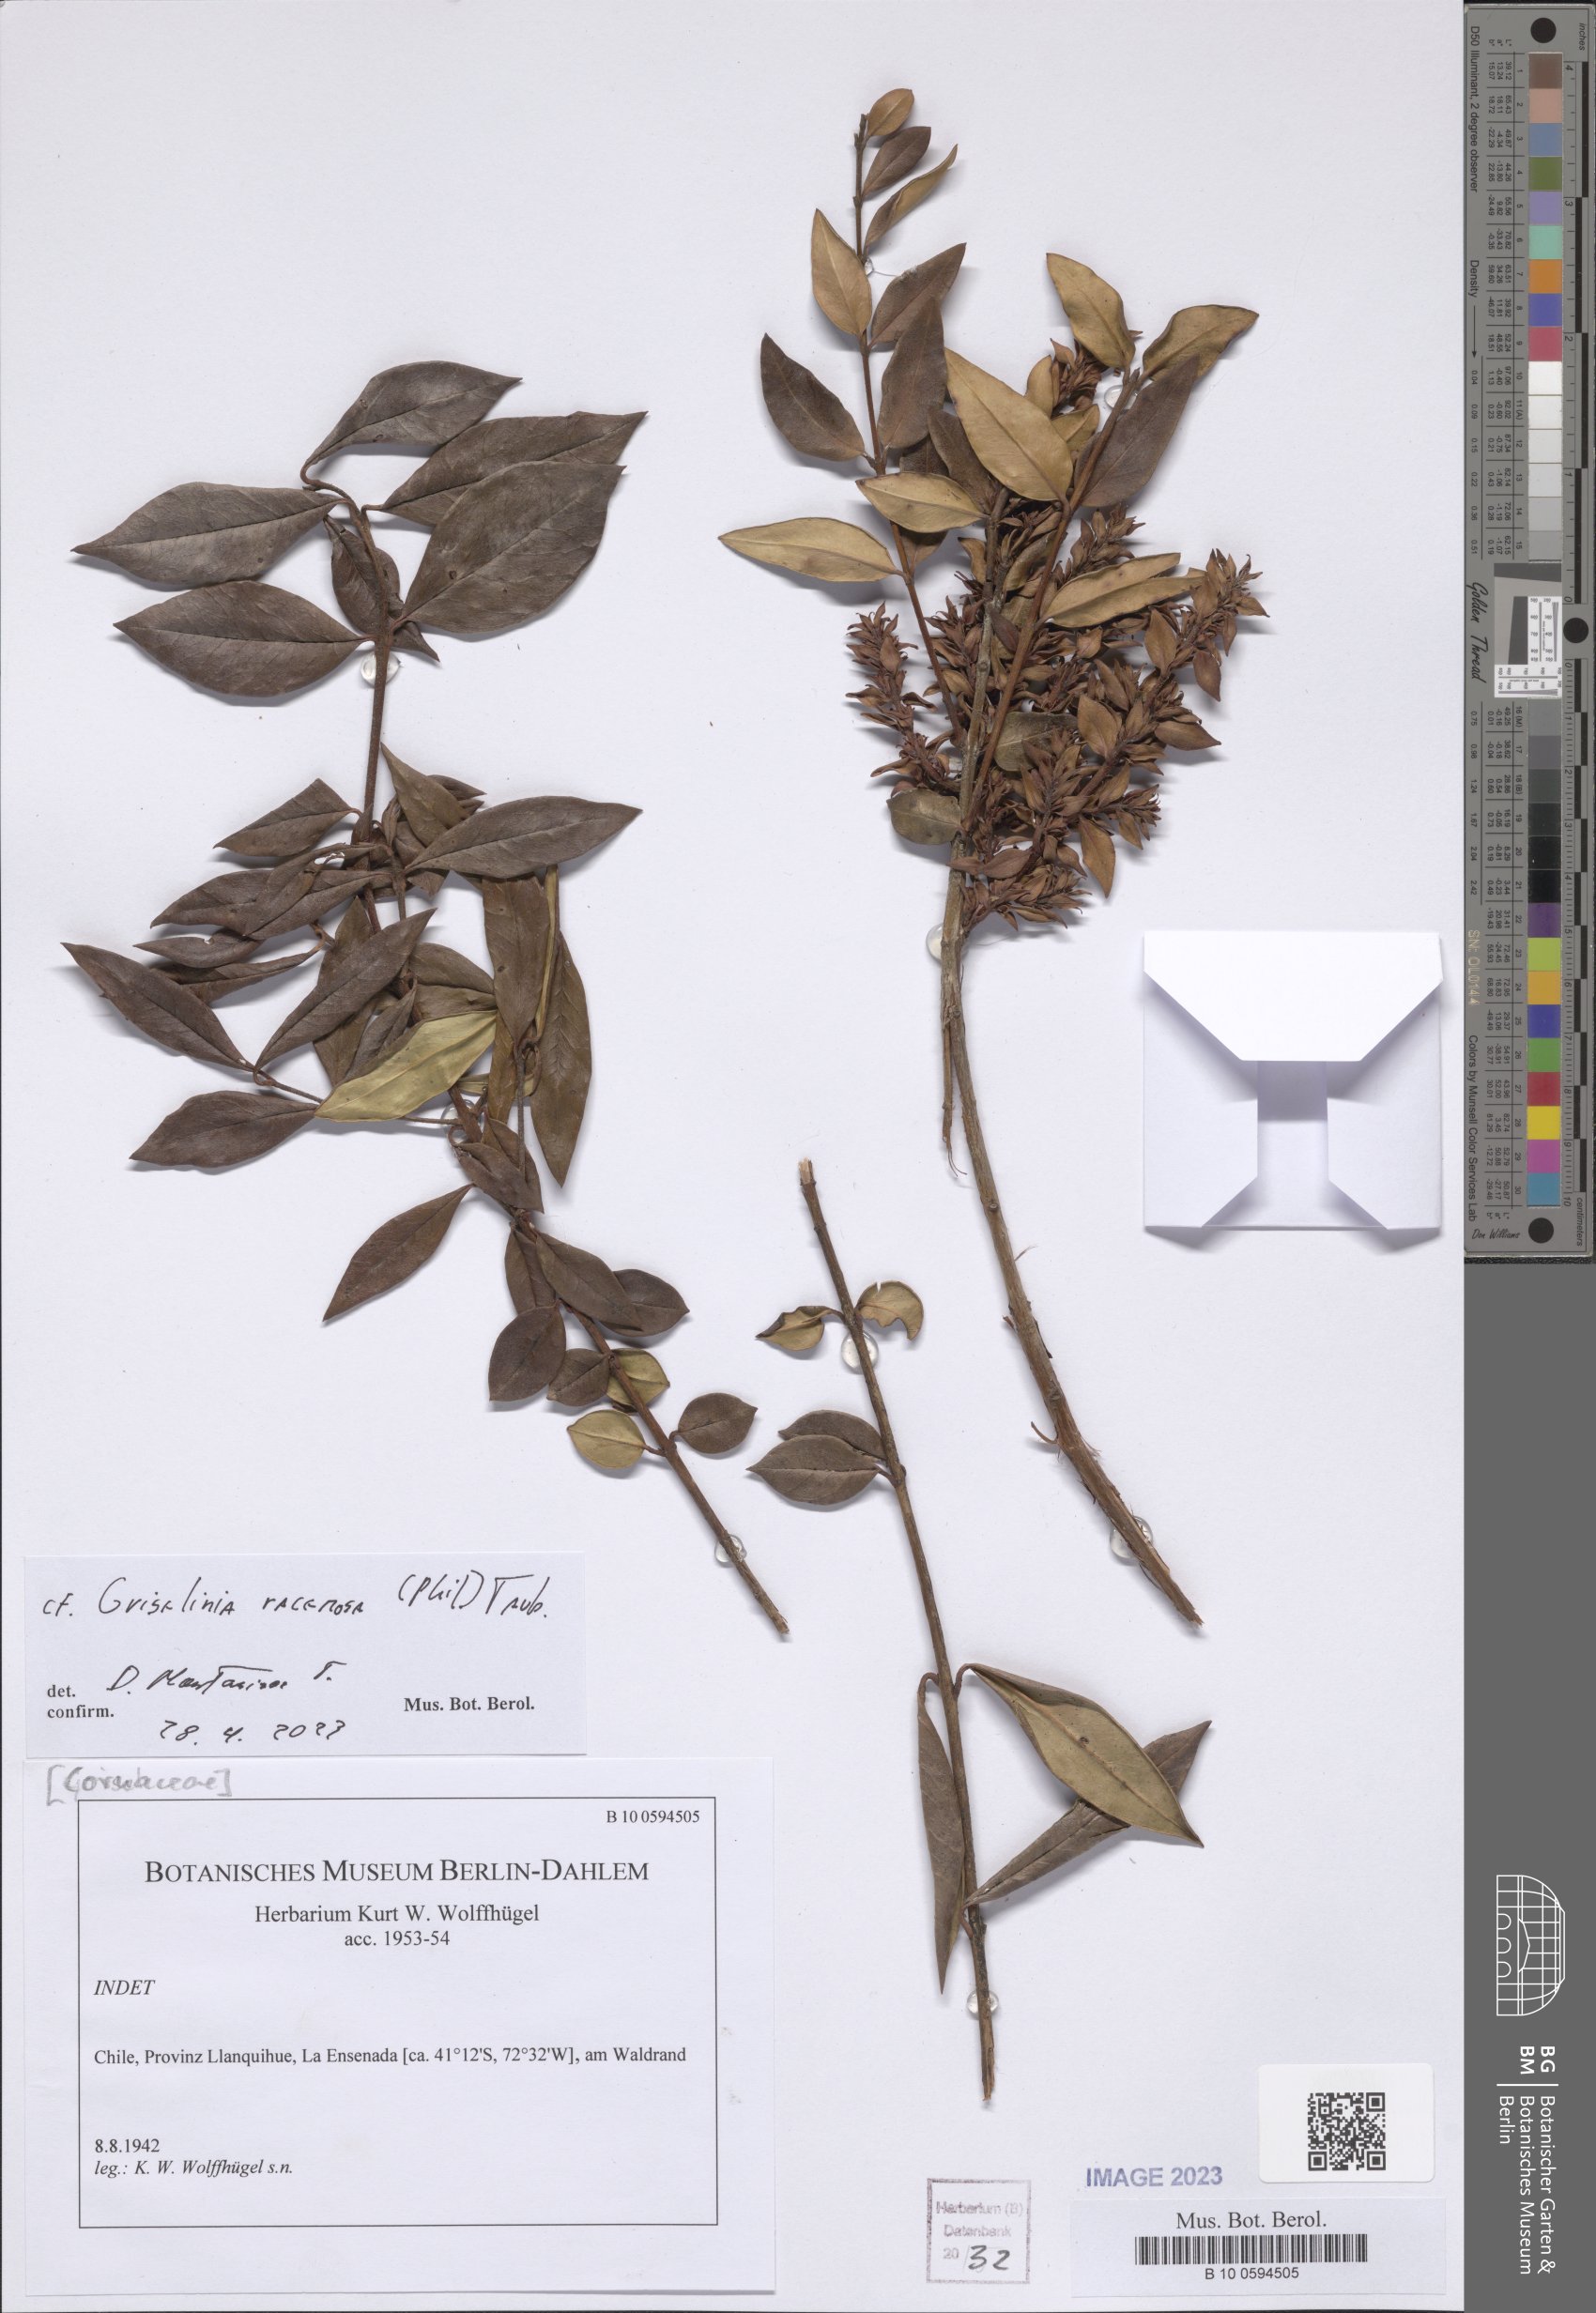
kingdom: Plantae
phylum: Tracheophyta
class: Magnoliopsida
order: Apiales
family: Griseliniaceae
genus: Griselinia
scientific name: Griselinia racemosa
